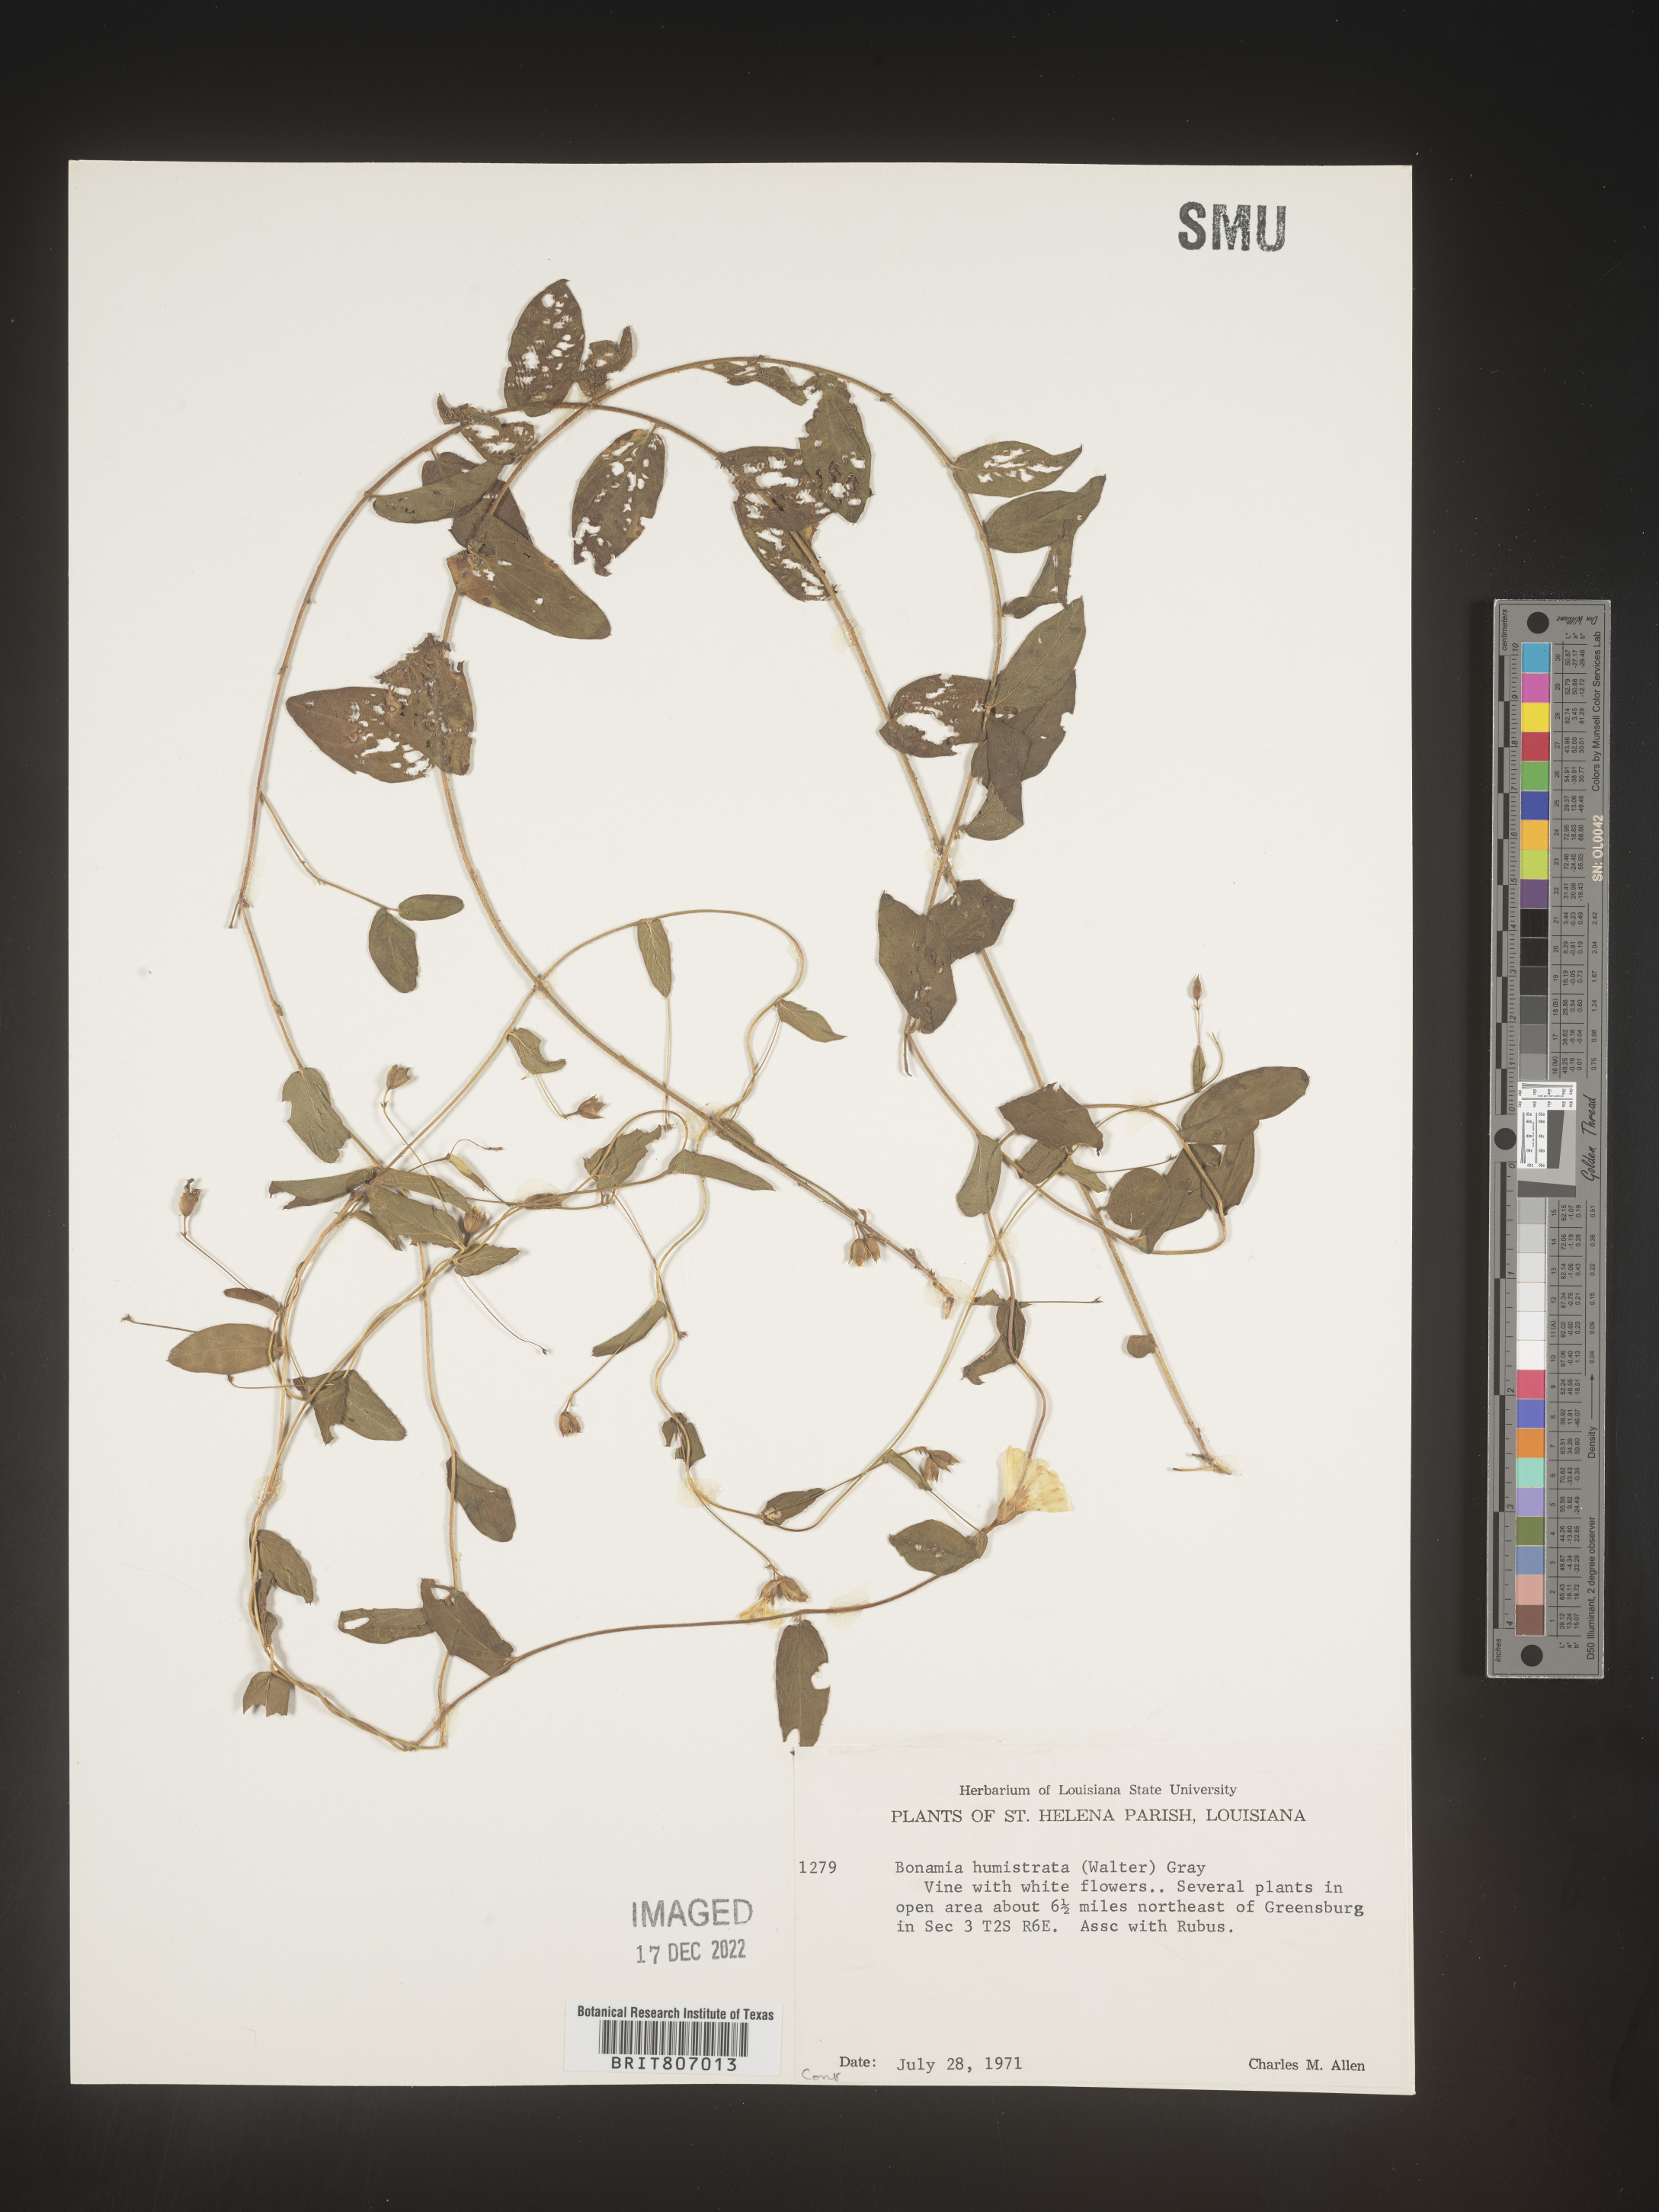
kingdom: Plantae
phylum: Tracheophyta
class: Magnoliopsida
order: Solanales
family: Convolvulaceae
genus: Stylisma
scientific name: Stylisma humistrata
